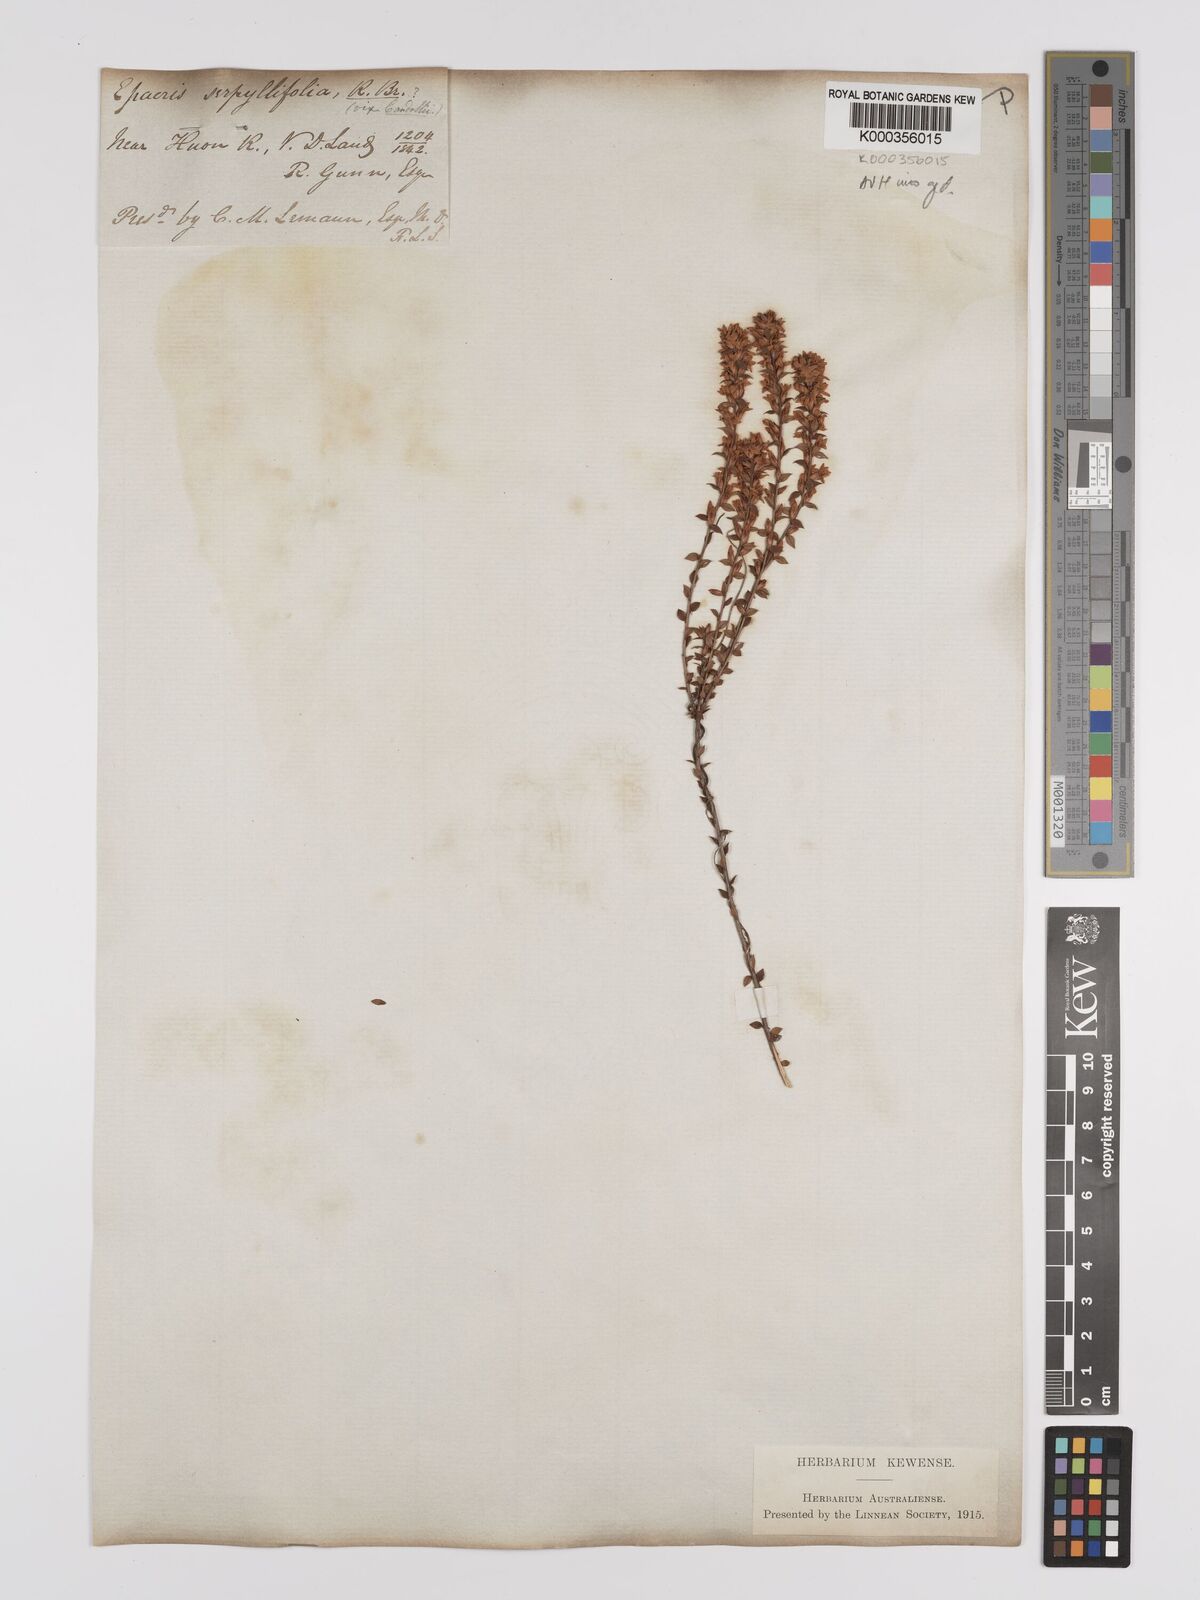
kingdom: Plantae
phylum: Tracheophyta
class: Magnoliopsida
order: Ericales
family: Ericaceae
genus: Epacris
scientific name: Epacris stuartii
